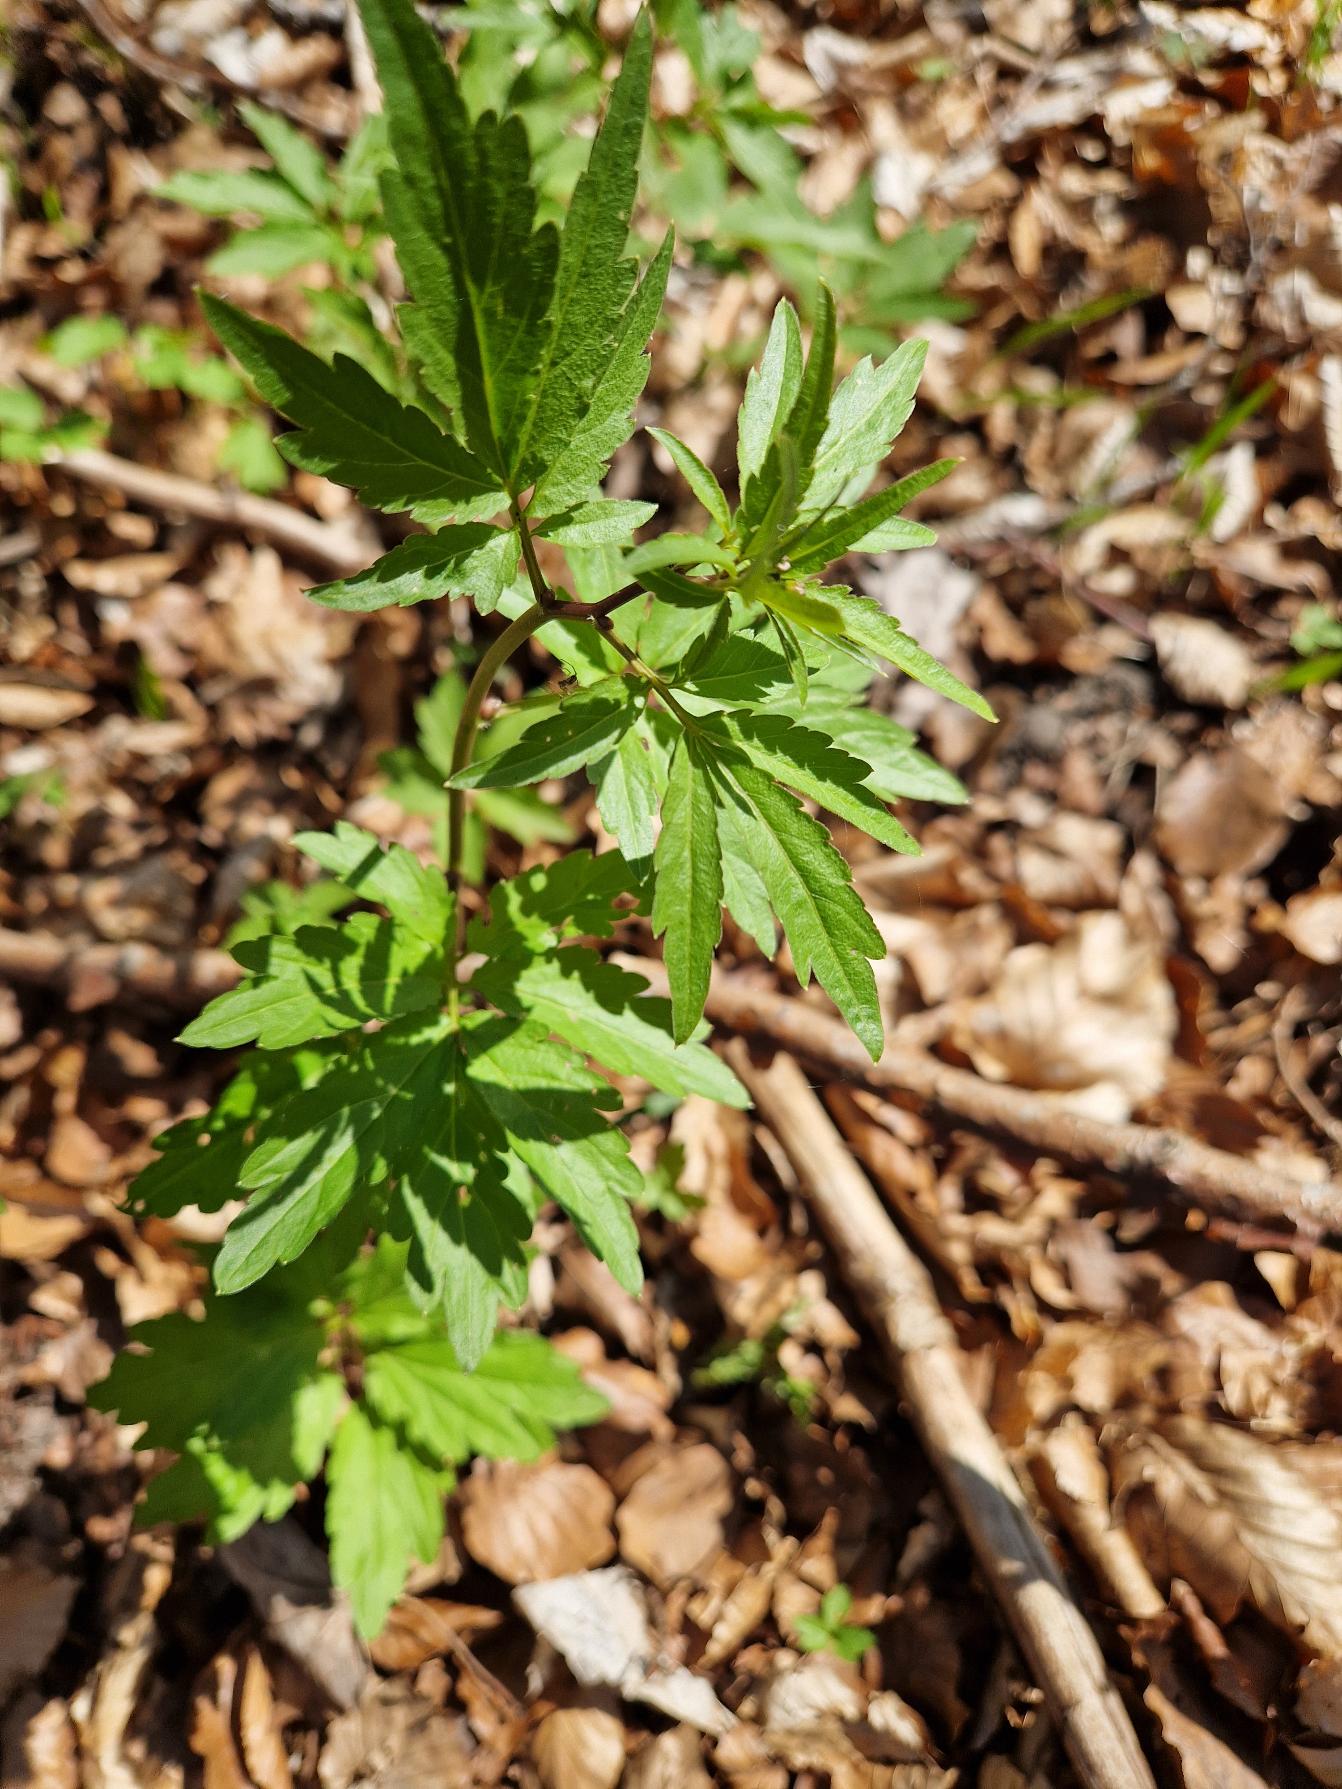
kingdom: Plantae
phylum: Tracheophyta
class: Magnoliopsida
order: Brassicales
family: Brassicaceae
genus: Cardamine
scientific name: Cardamine bulbifera
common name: Tandrod
